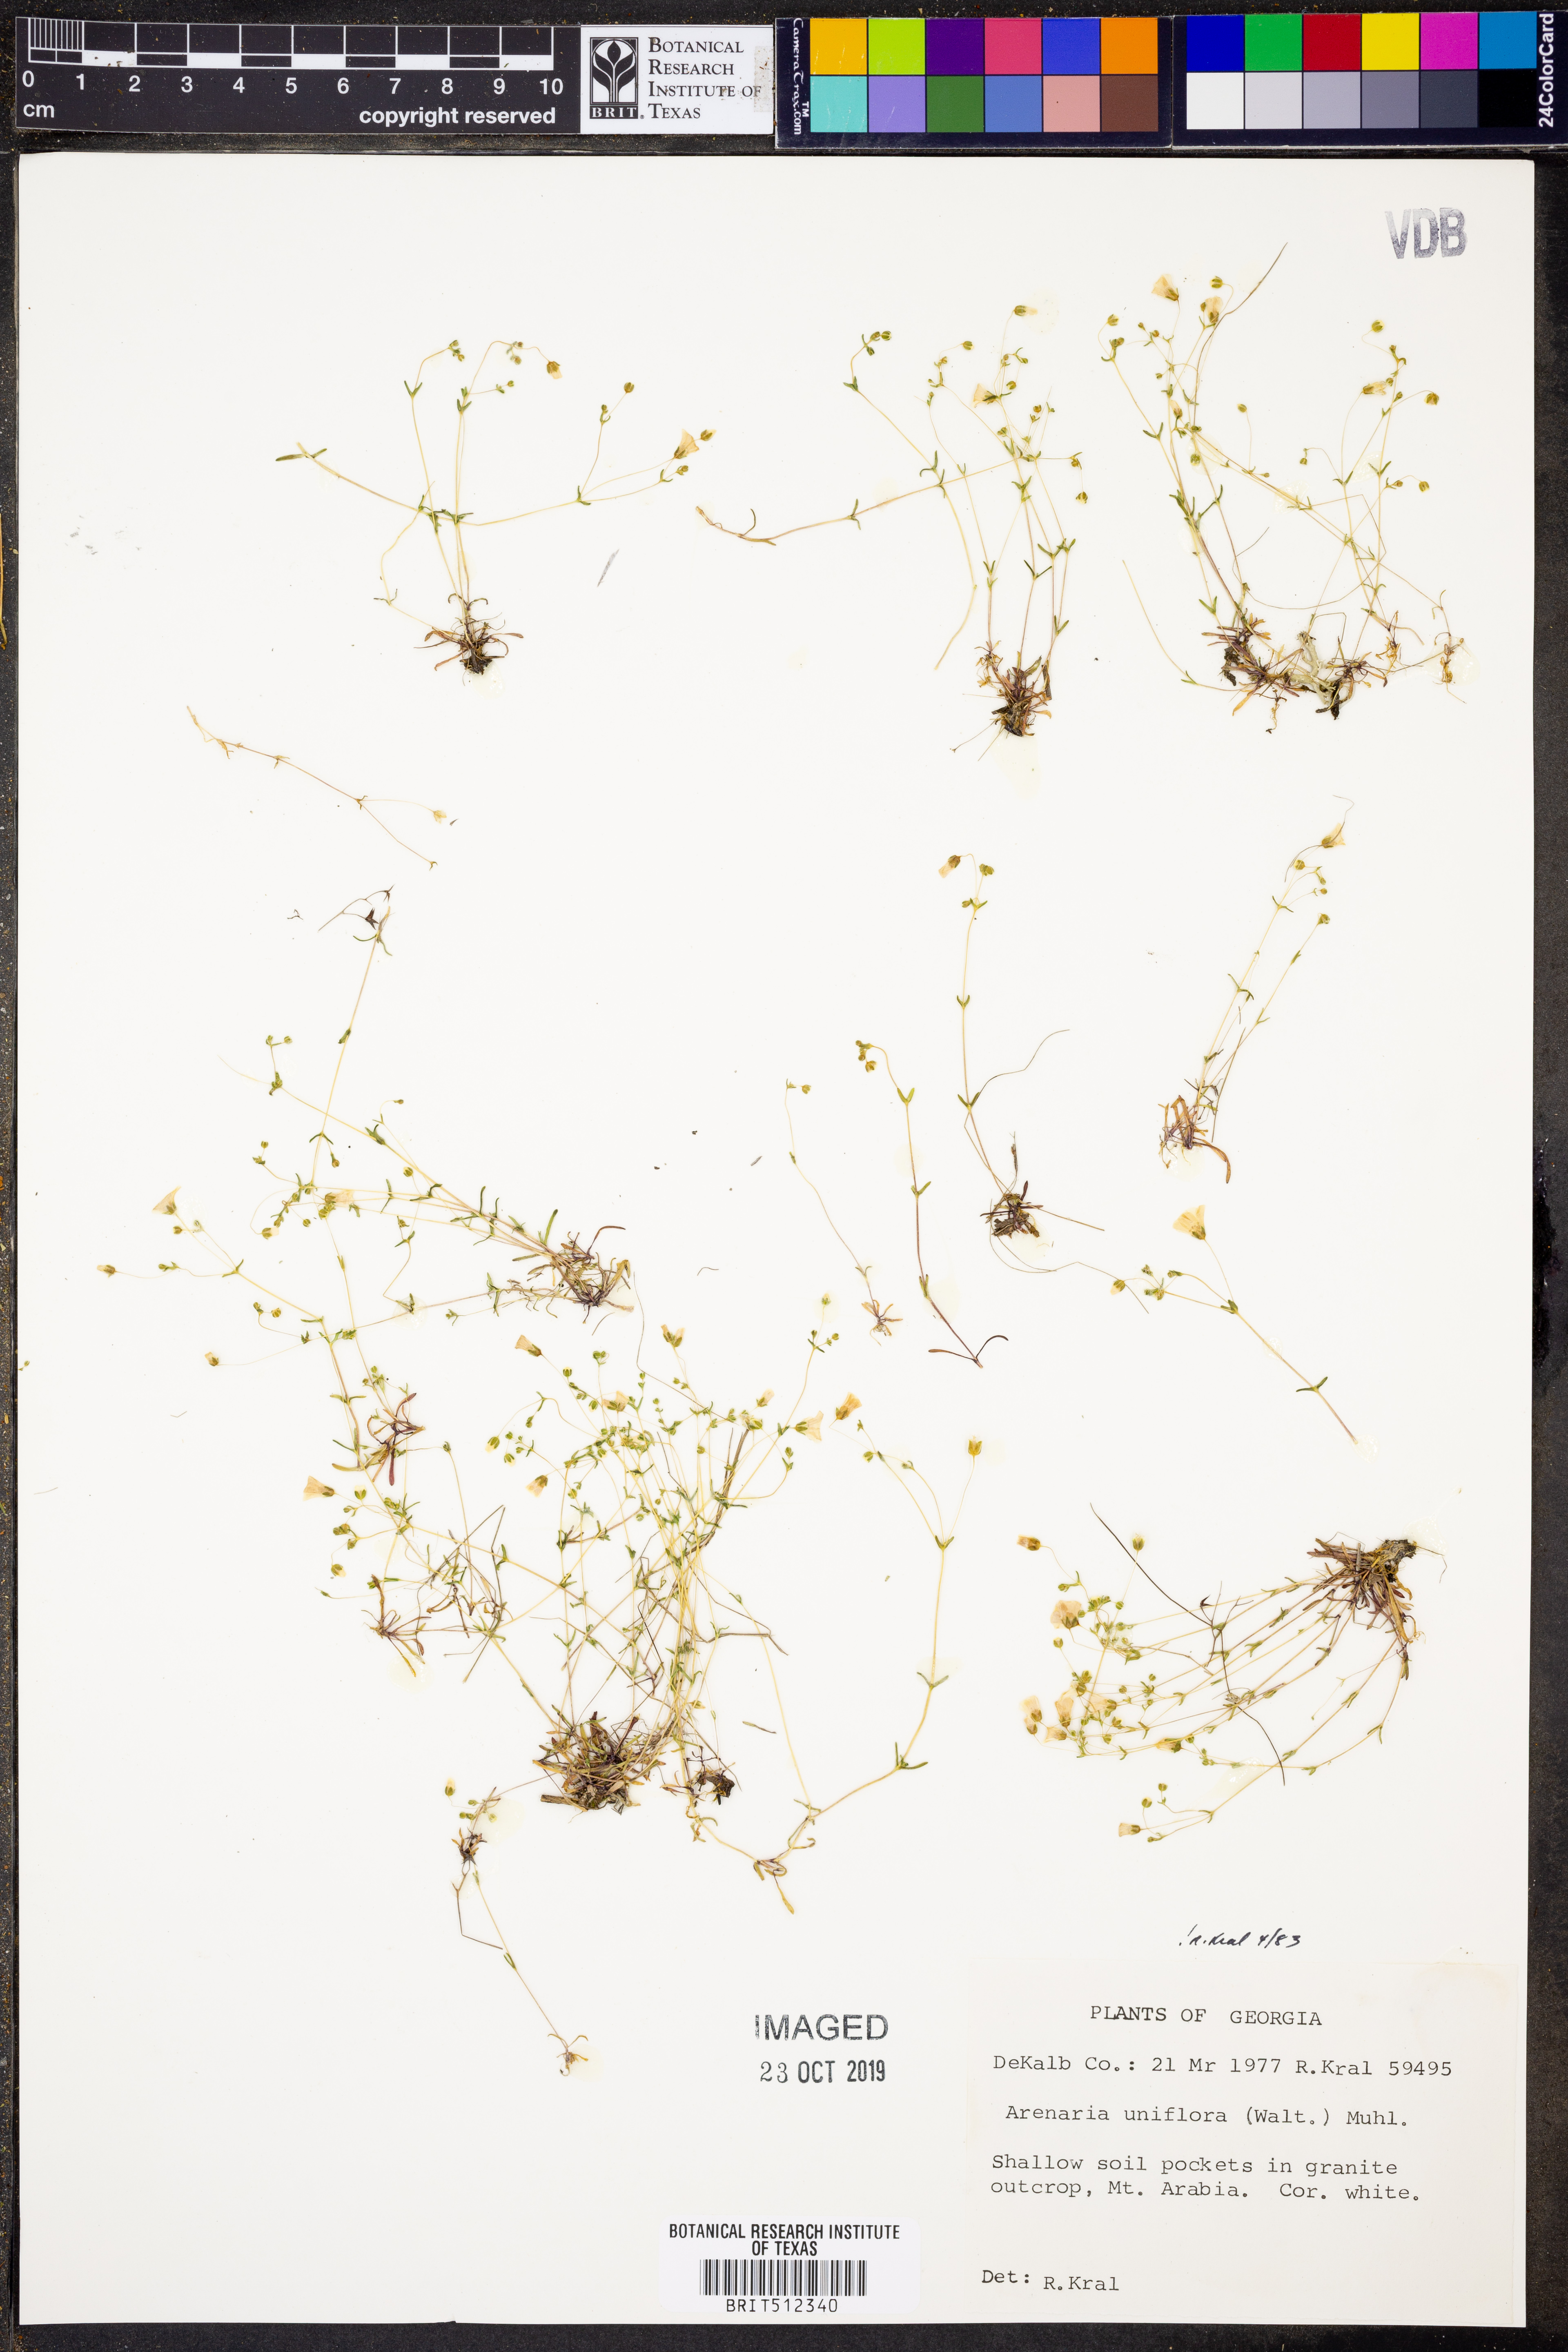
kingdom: Plantae
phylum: Tracheophyta
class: Magnoliopsida
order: Caryophyllales
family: Caryophyllaceae
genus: Geocarpon
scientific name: Geocarpon uniflorum
